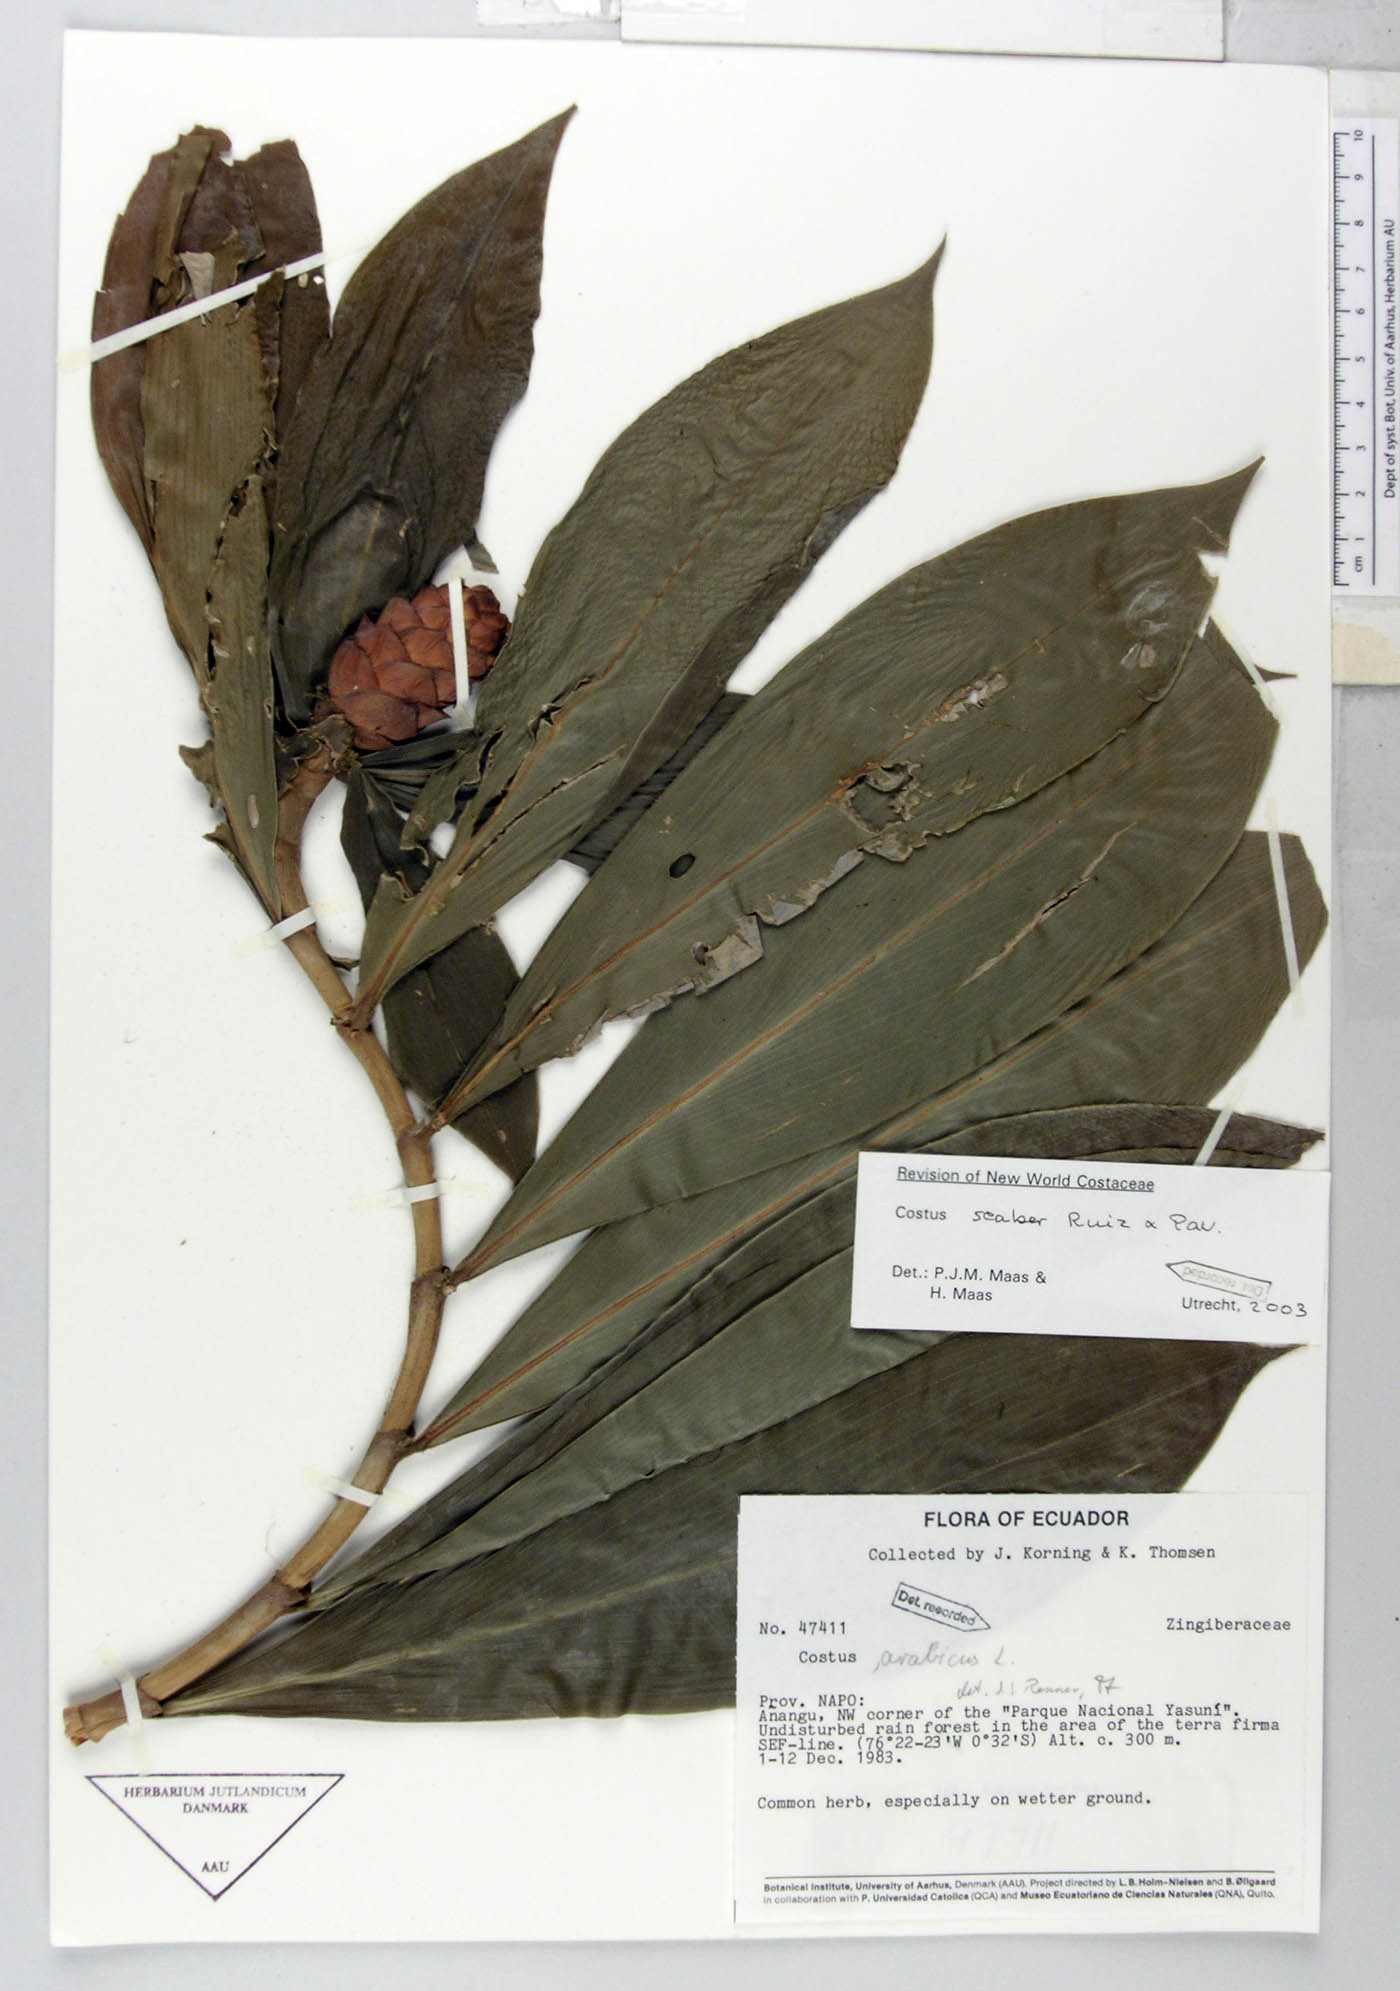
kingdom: Plantae
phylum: Tracheophyta
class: Liliopsida
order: Zingiberales
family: Costaceae
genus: Costus
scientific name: Costus scaber
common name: Spiral head ginger
